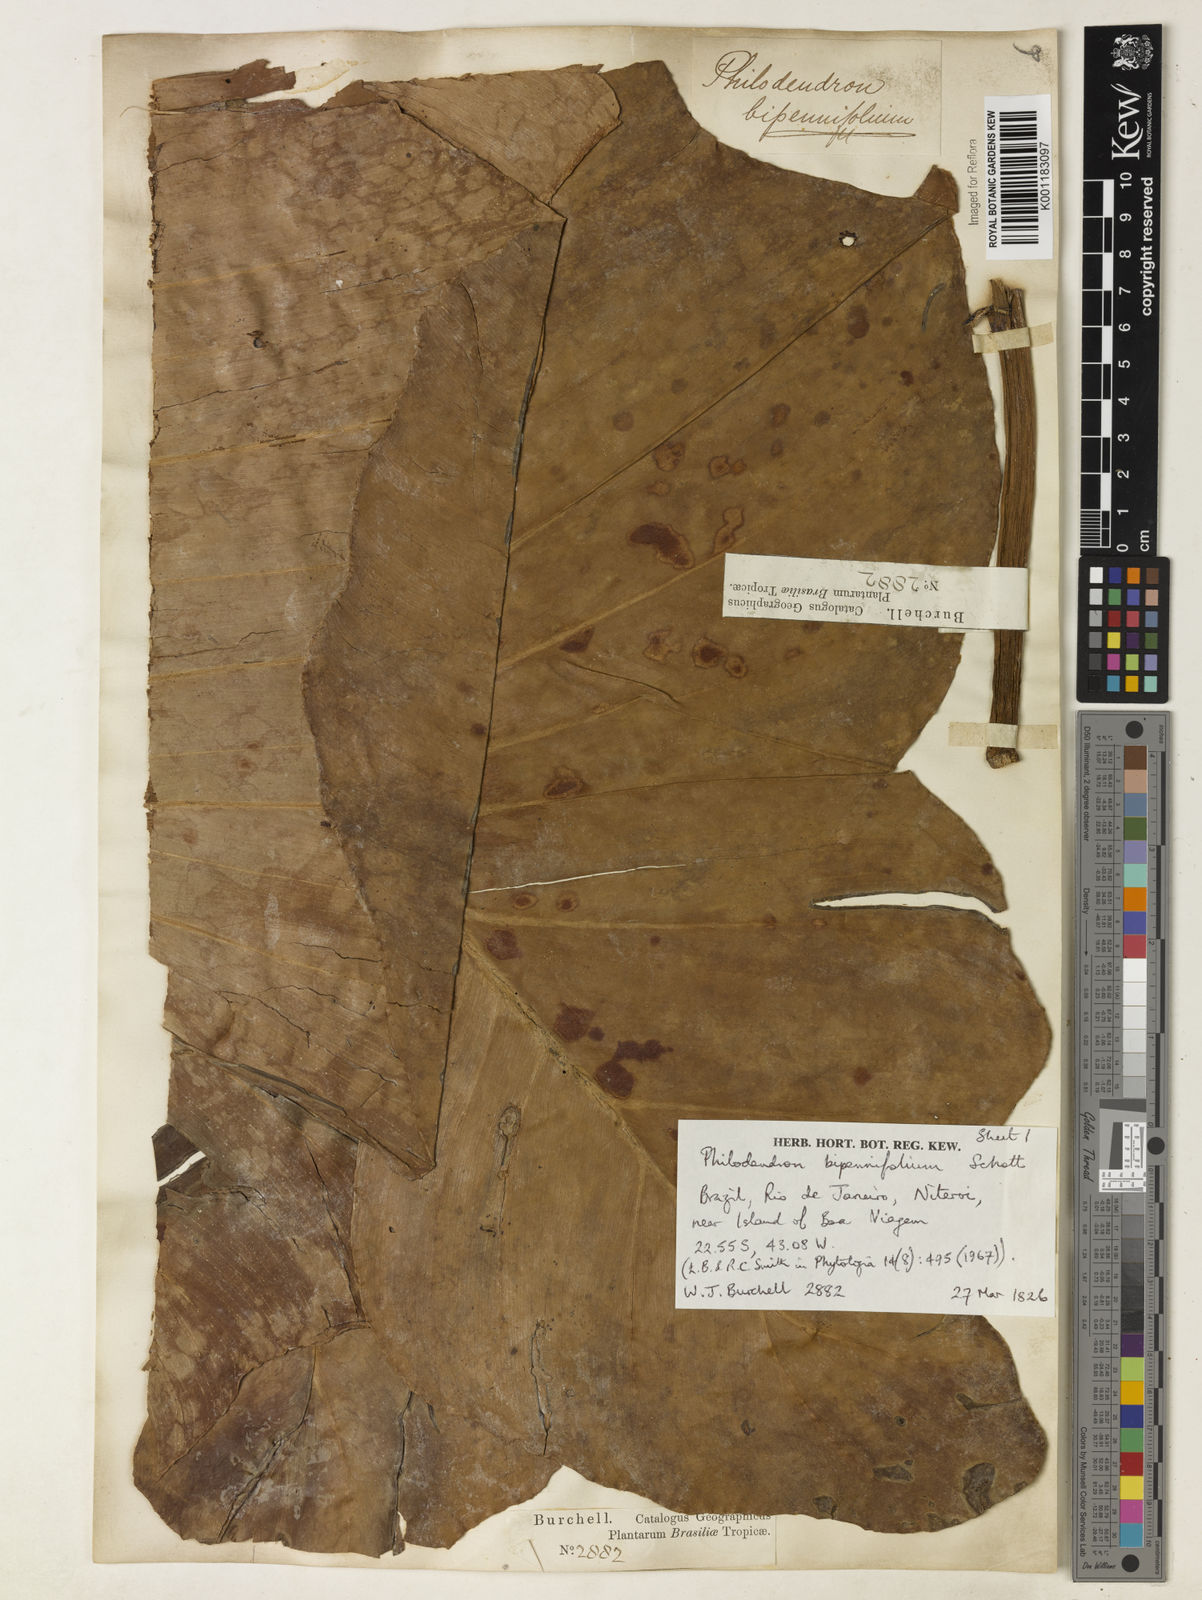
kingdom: Plantae
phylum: Tracheophyta
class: Liliopsida
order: Alismatales
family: Araceae
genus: Philodendron
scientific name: Philodendron bipennifolium
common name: Fiddle-leaf philodendron
